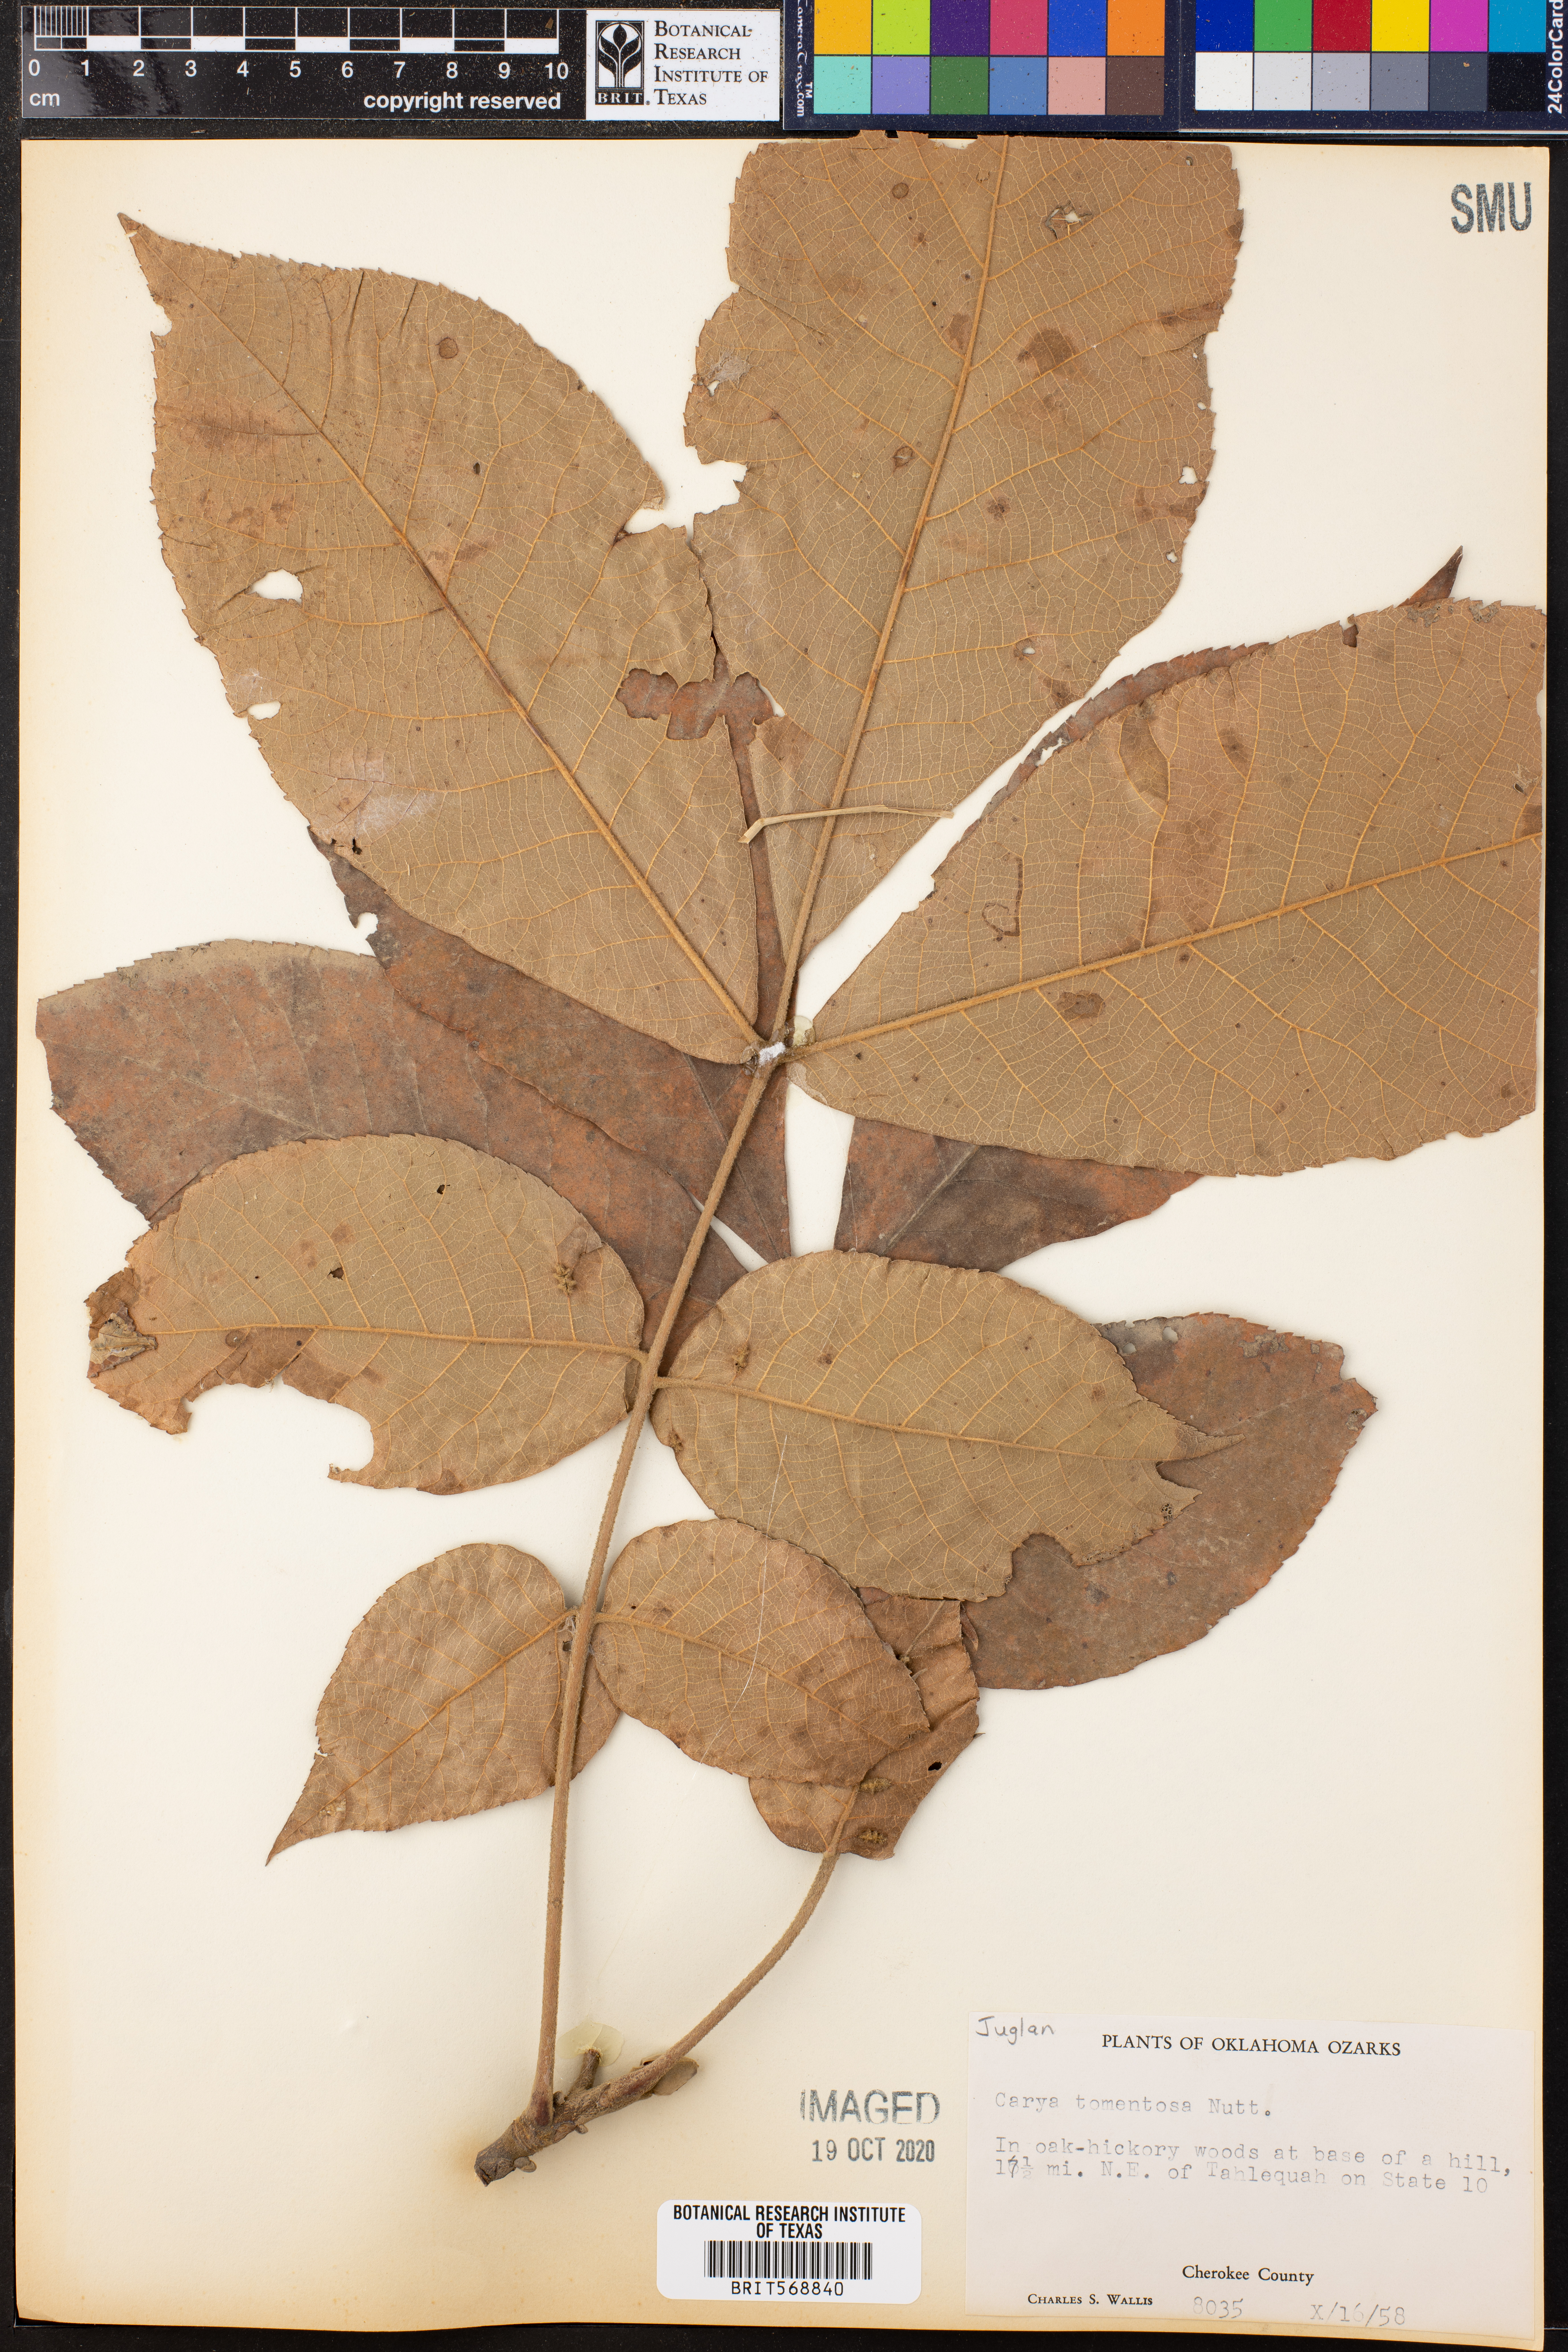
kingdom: Plantae
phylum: Tracheophyta
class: Magnoliopsida
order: Fagales
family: Juglandaceae
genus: Carya
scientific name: Carya alba
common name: Mockernut hickory
